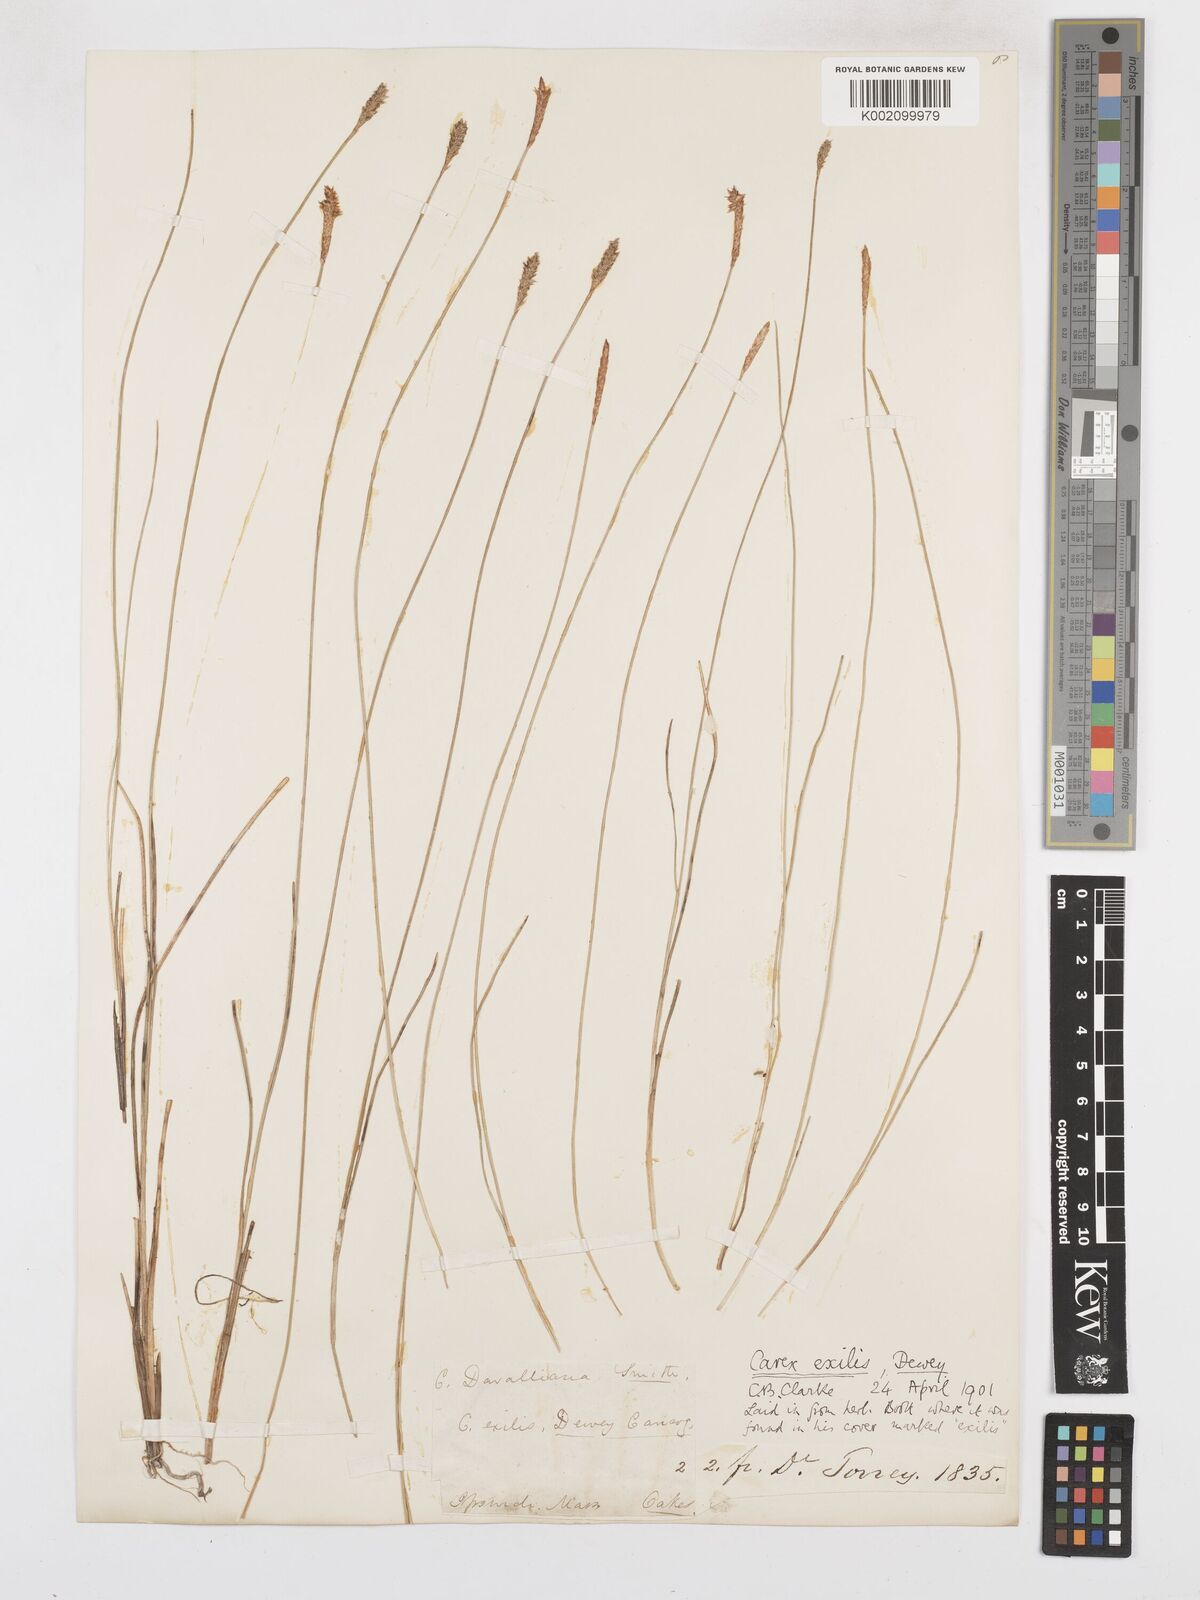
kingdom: Plantae
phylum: Tracheophyta
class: Liliopsida
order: Poales
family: Cyperaceae
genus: Carex
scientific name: Carex exilis
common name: Coastal sedge
